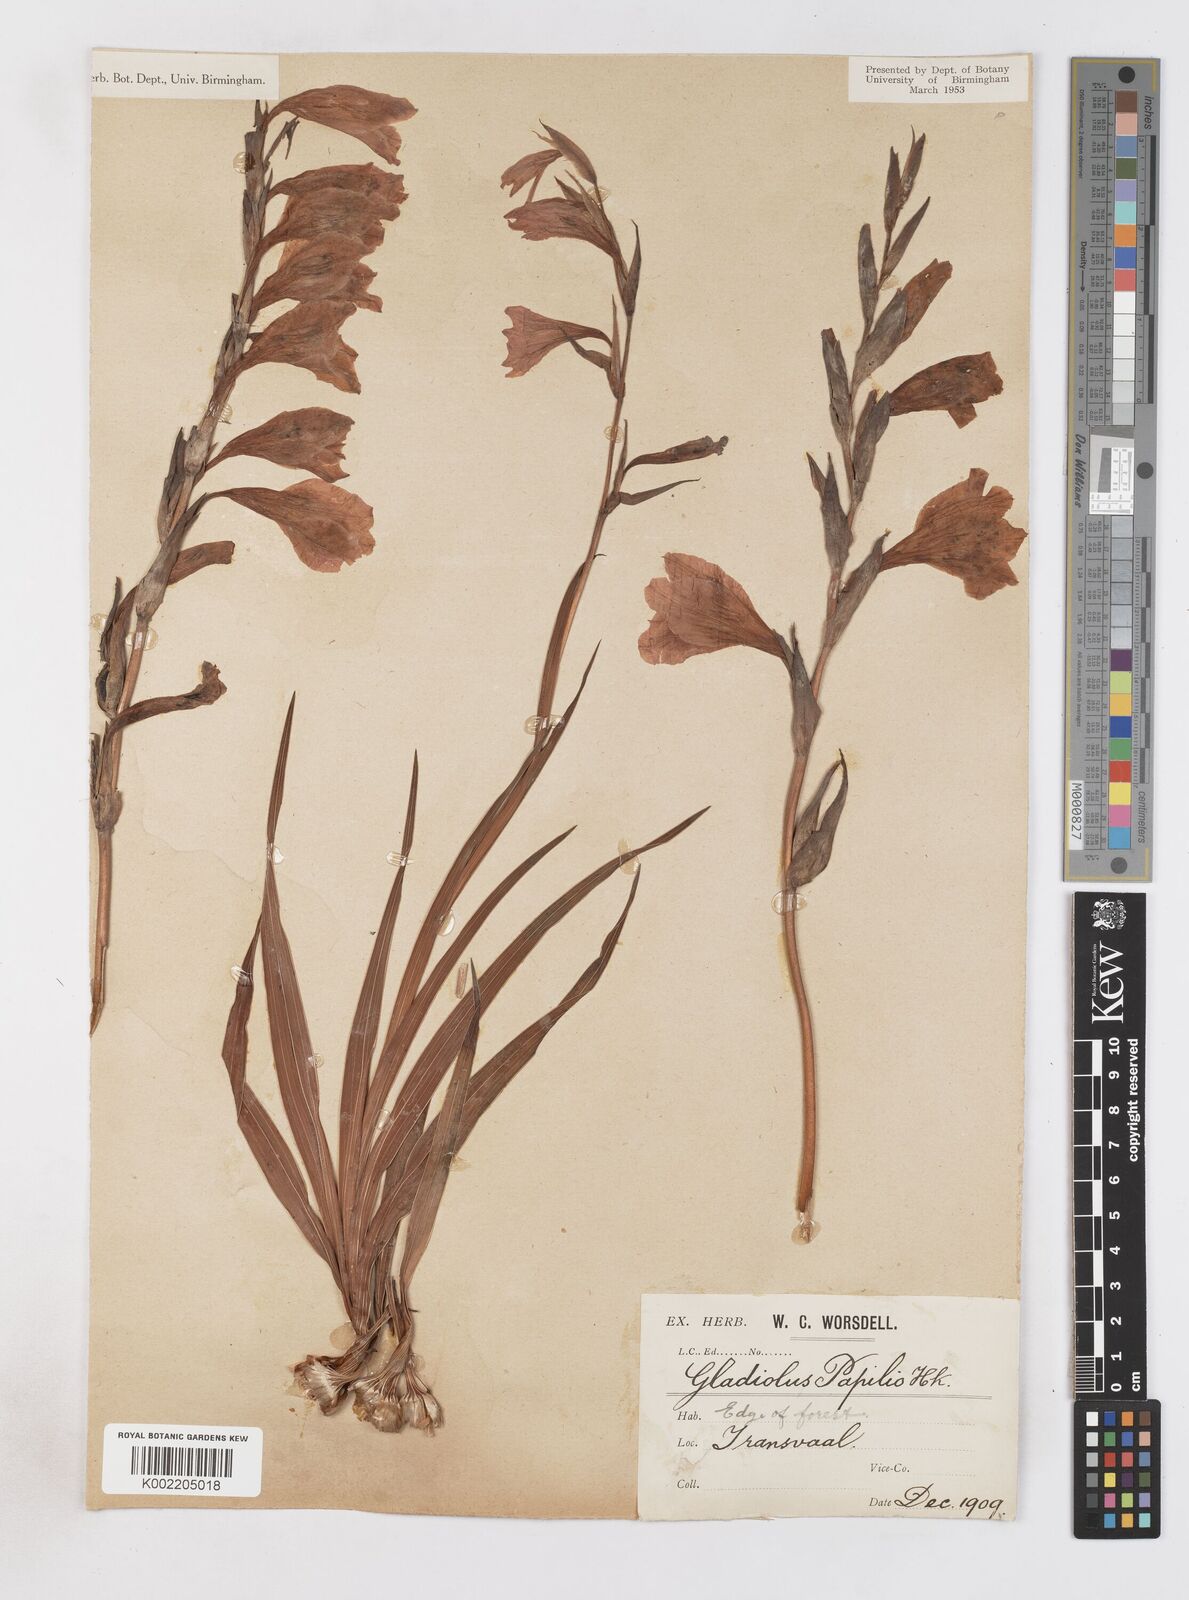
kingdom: Plantae
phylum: Tracheophyta
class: Liliopsida
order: Asparagales
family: Iridaceae
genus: Gladiolus
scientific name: Gladiolus mortonius
